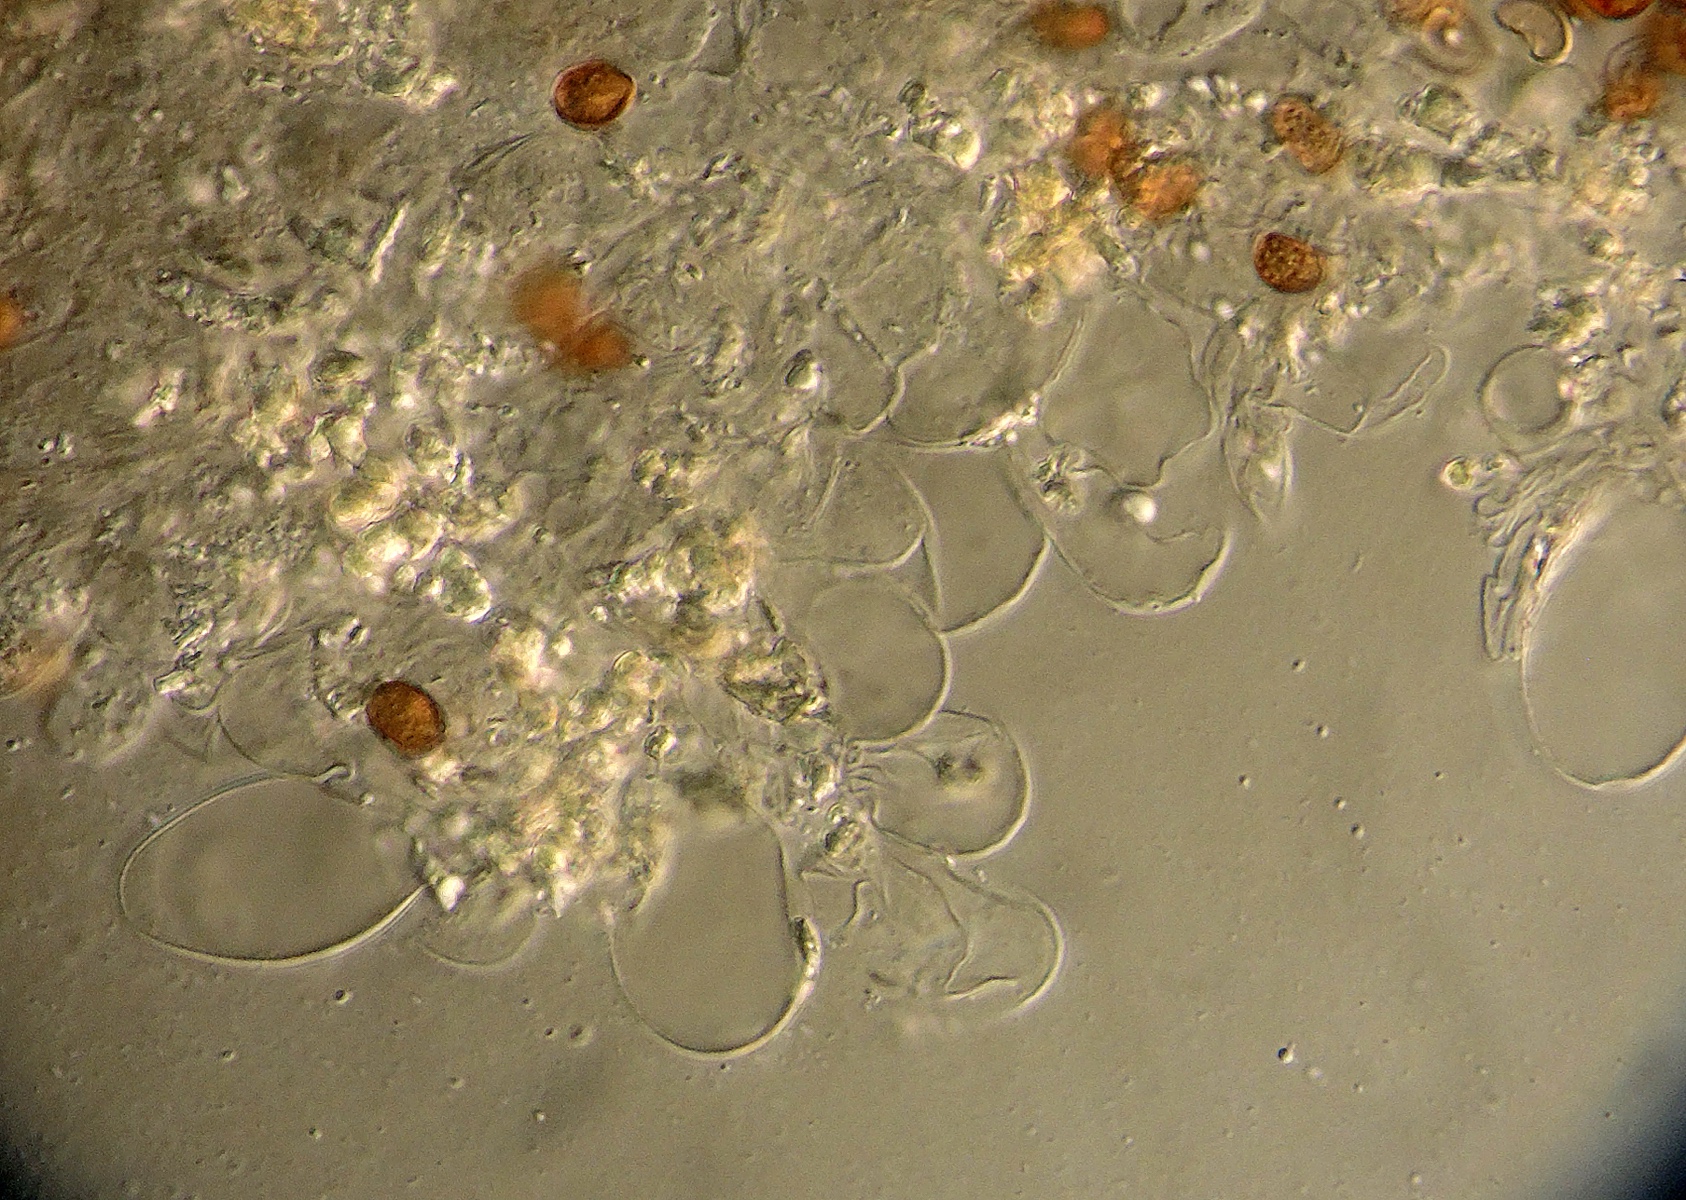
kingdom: Fungi
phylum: Basidiomycota
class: Agaricomycetes
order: Agaricales
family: Psathyrellaceae
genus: Cystoagaricus
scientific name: Cystoagaricus hirtosquamulosus
